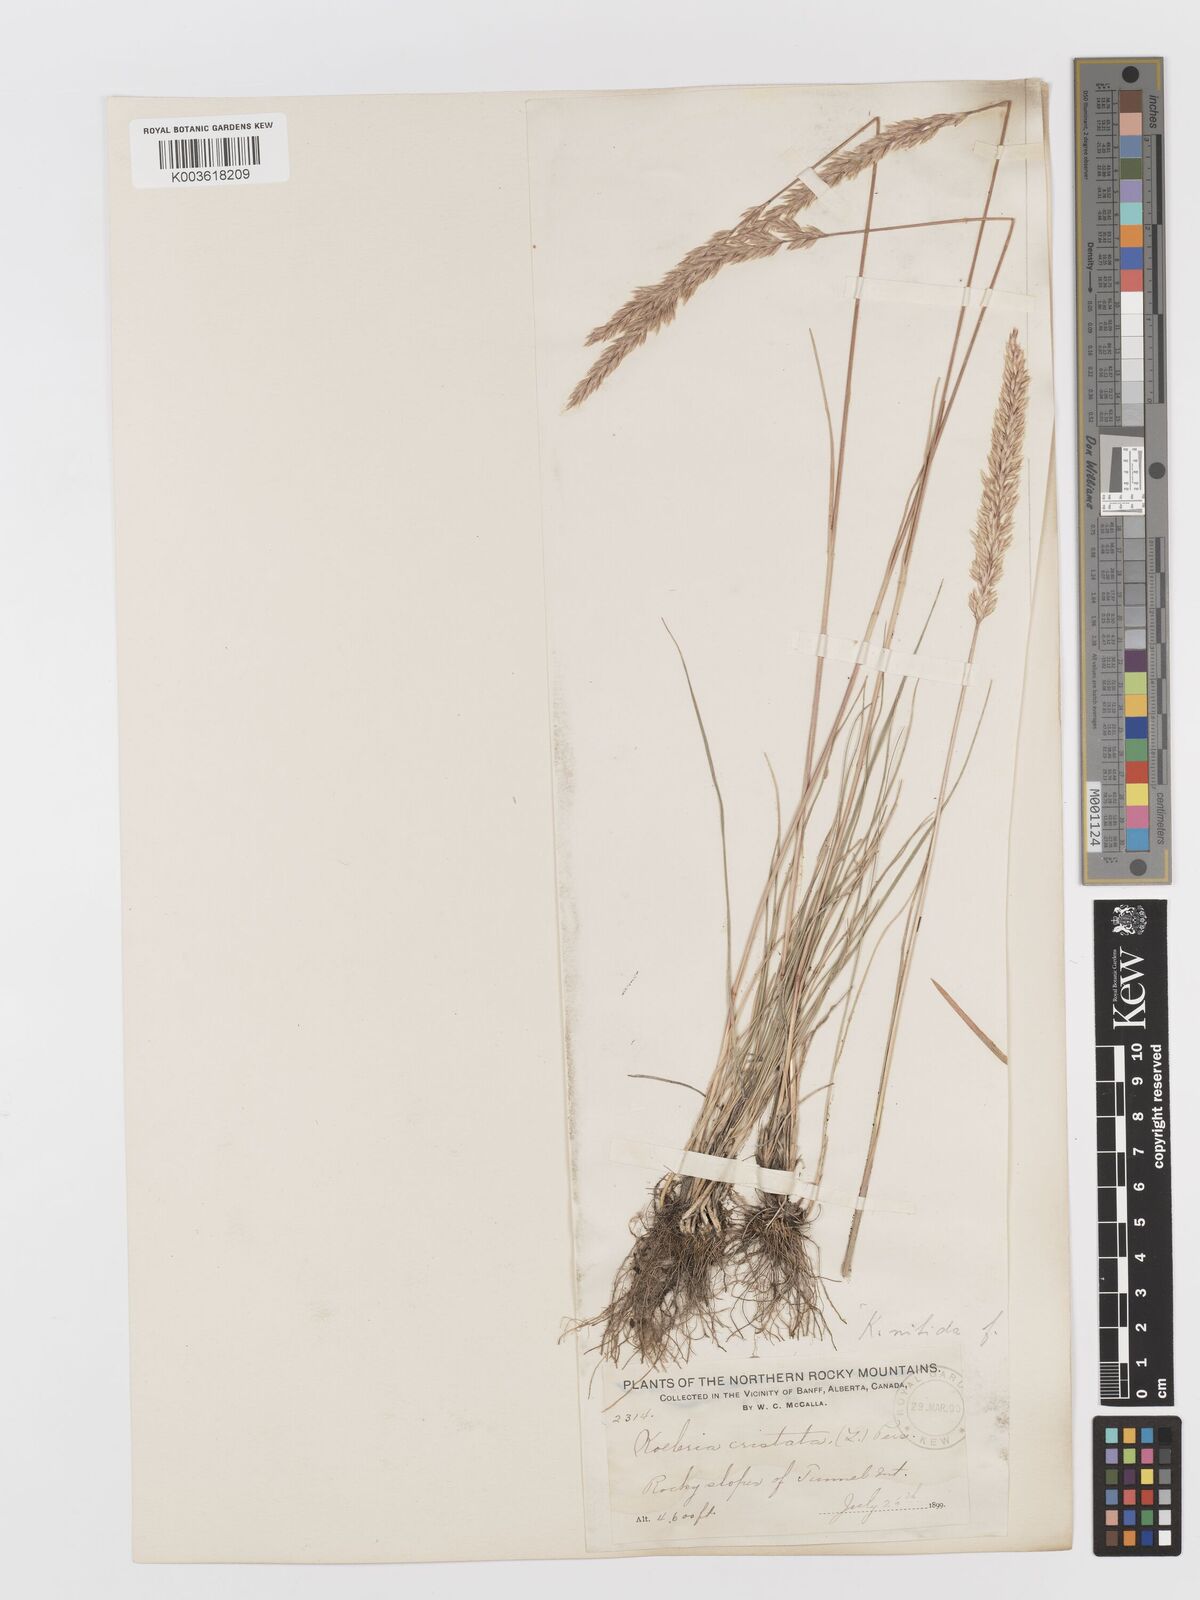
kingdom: Plantae
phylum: Tracheophyta
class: Liliopsida
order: Poales
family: Poaceae
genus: Koeleria
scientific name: Koeleria
